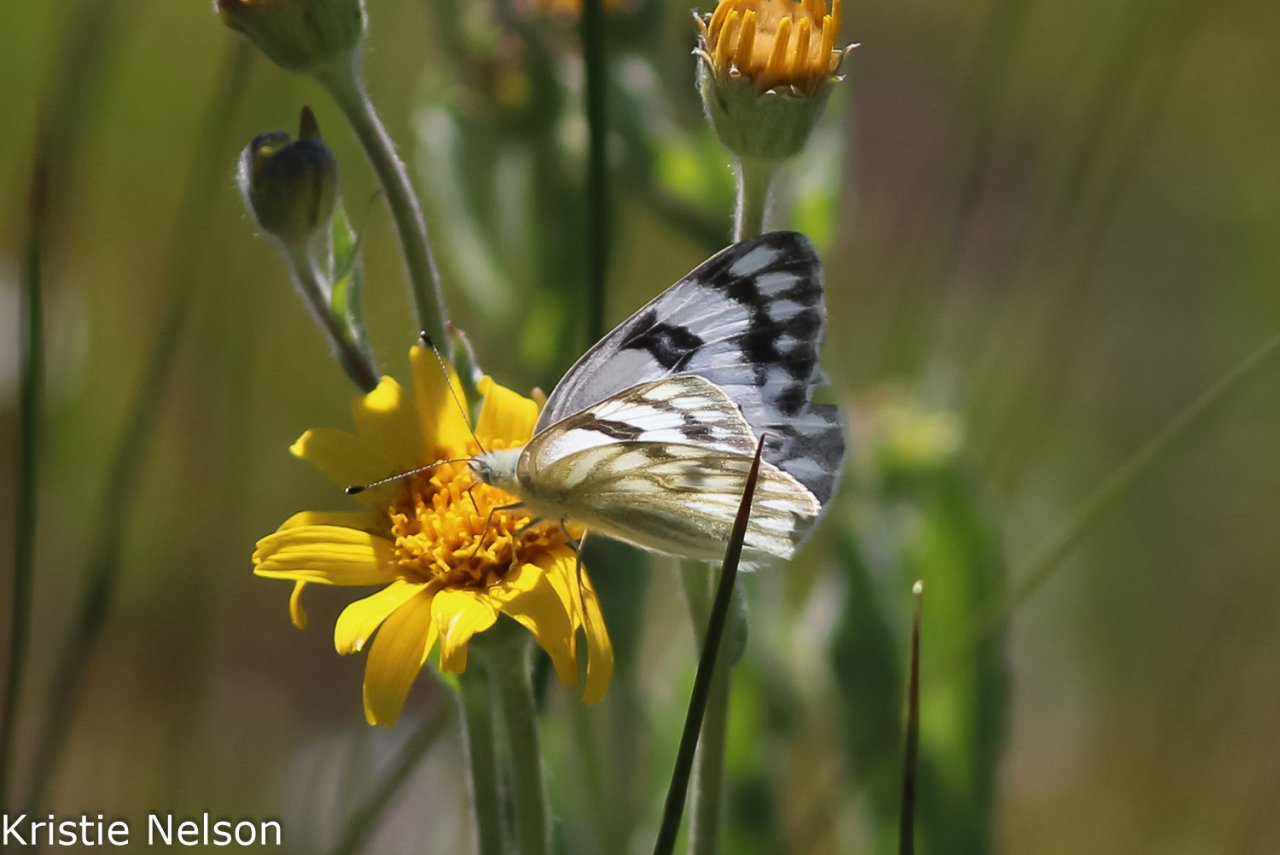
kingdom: Animalia
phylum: Arthropoda
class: Insecta
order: Lepidoptera
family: Pieridae
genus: Pontia
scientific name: Pontia occidentalis
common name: Western White
